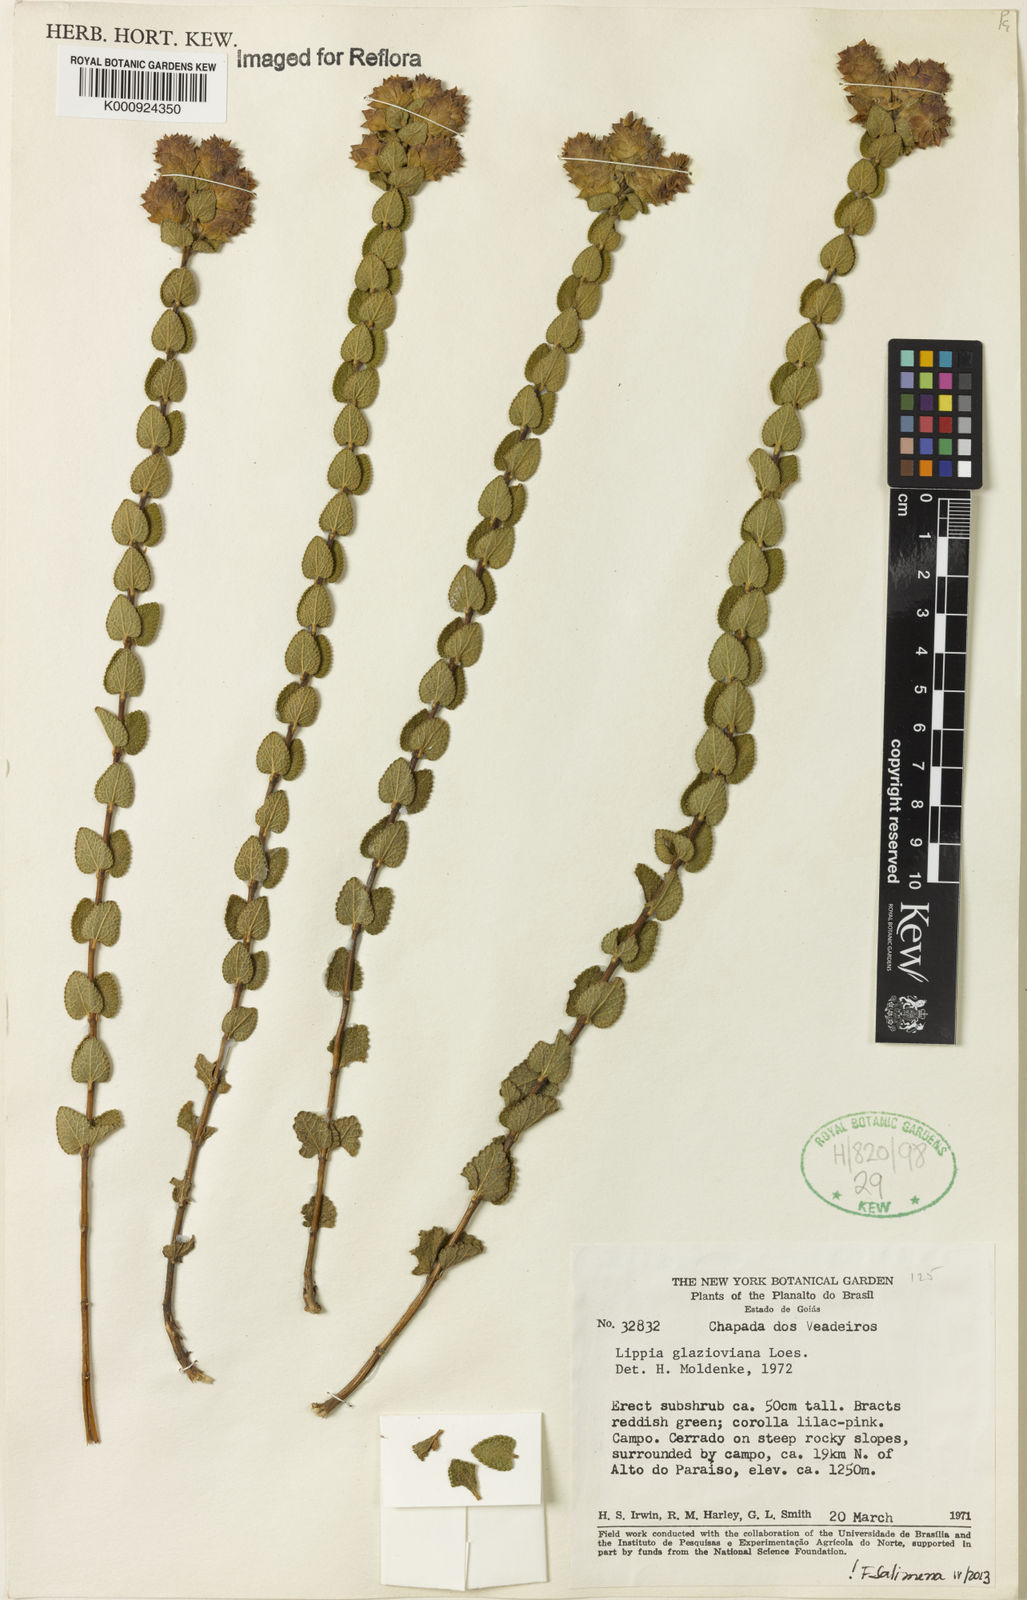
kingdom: Plantae
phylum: Tracheophyta
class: Magnoliopsida
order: Lamiales
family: Verbenaceae
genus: Lippia
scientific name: Lippia glazioviana
